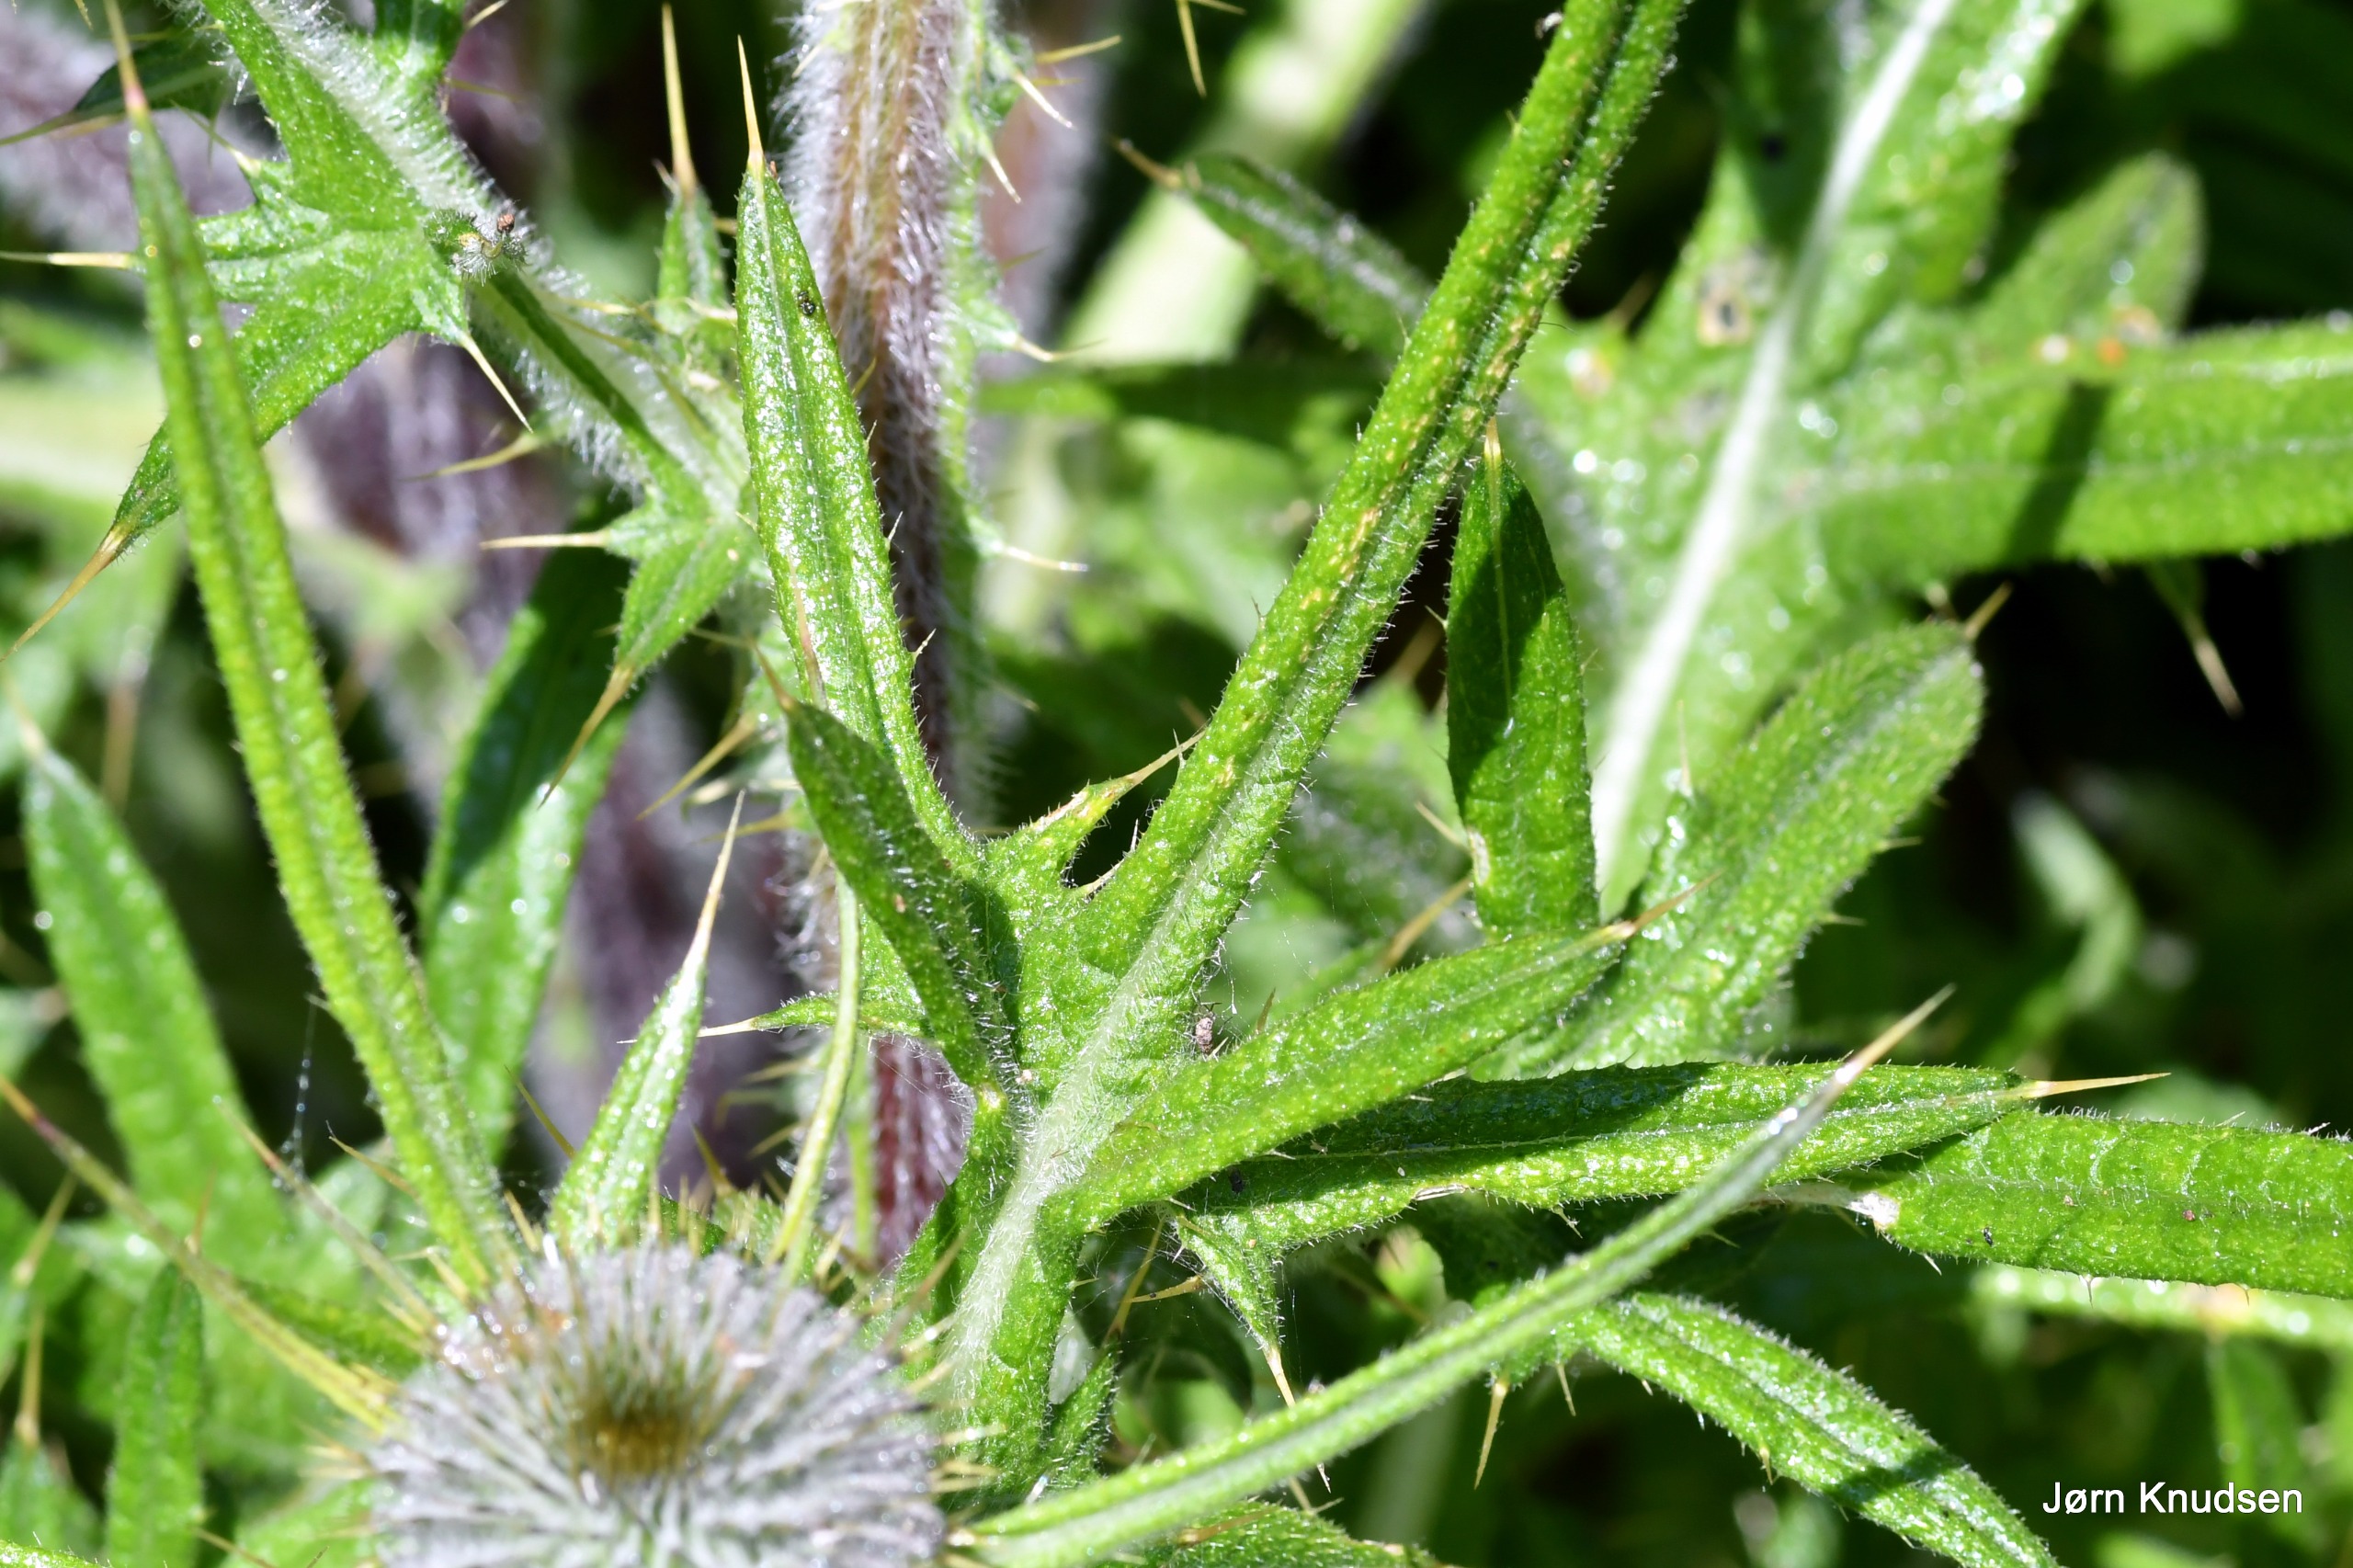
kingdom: Plantae
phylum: Tracheophyta
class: Magnoliopsida
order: Asterales
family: Asteraceae
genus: Cirsium
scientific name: Cirsium vulgare
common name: Horse-tidsel
